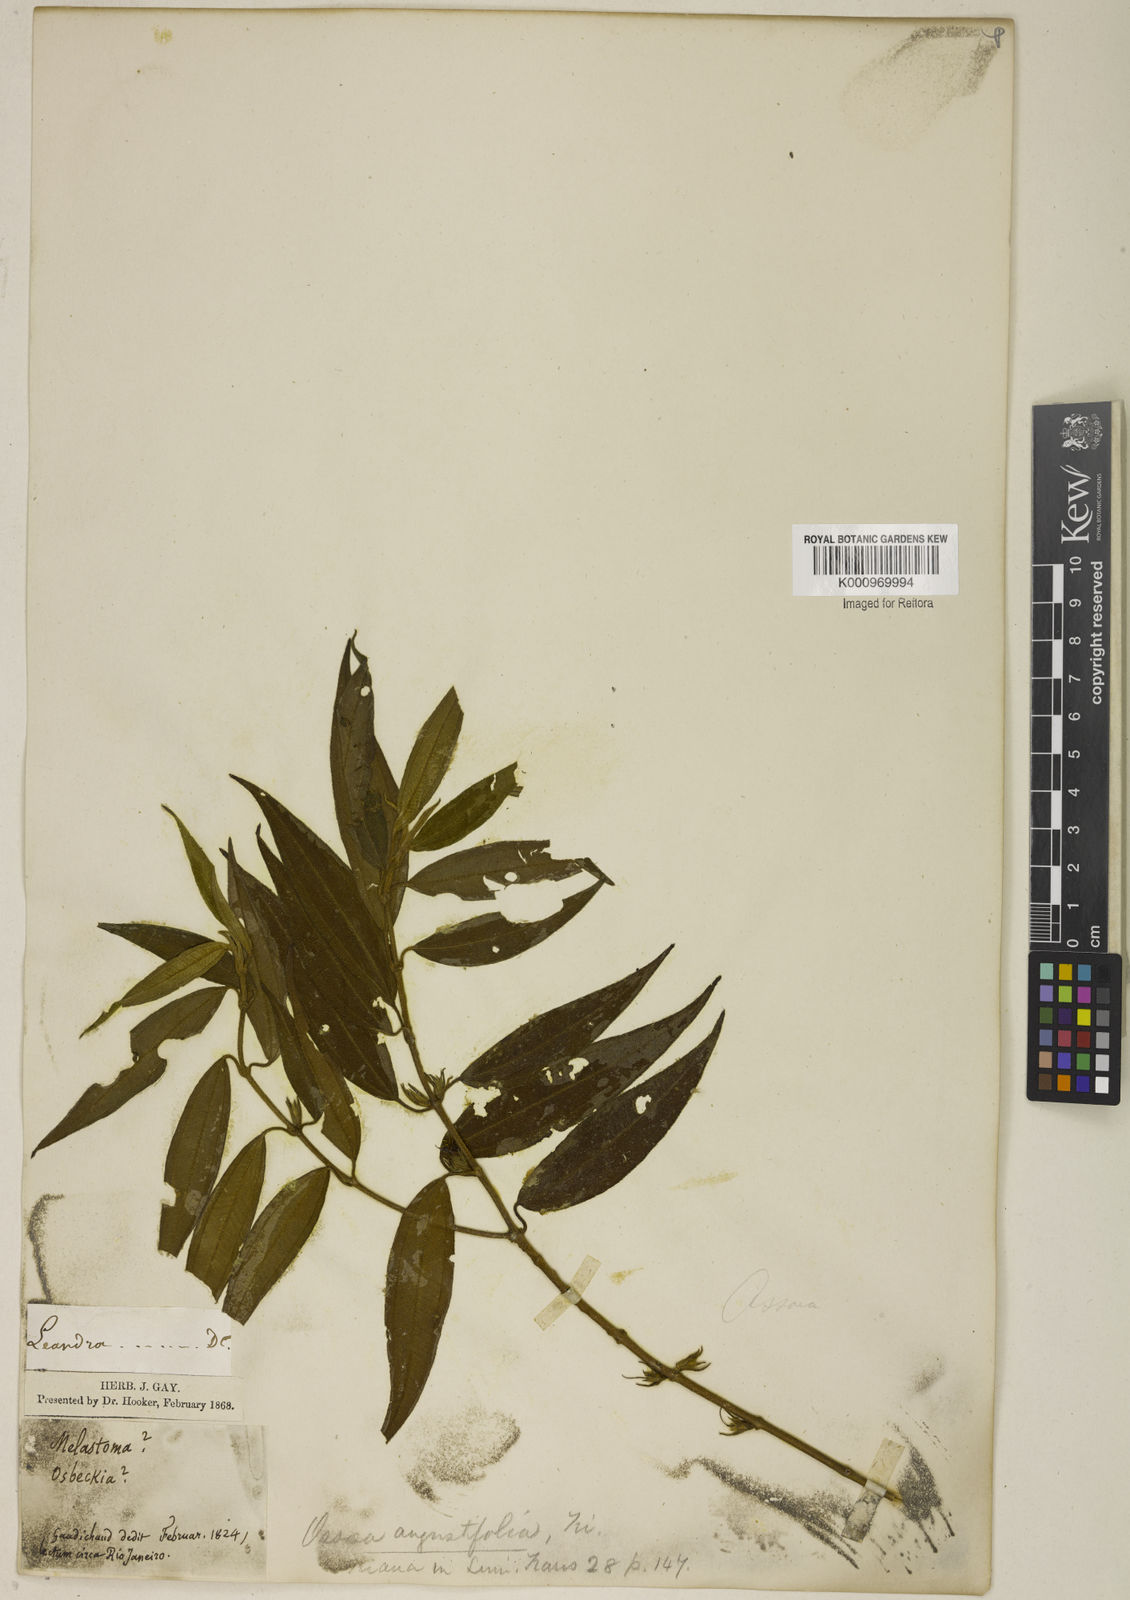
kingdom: Plantae
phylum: Tracheophyta
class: Magnoliopsida
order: Myrtales
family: Melastomataceae
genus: Miconia
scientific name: Miconia corcovadensis
